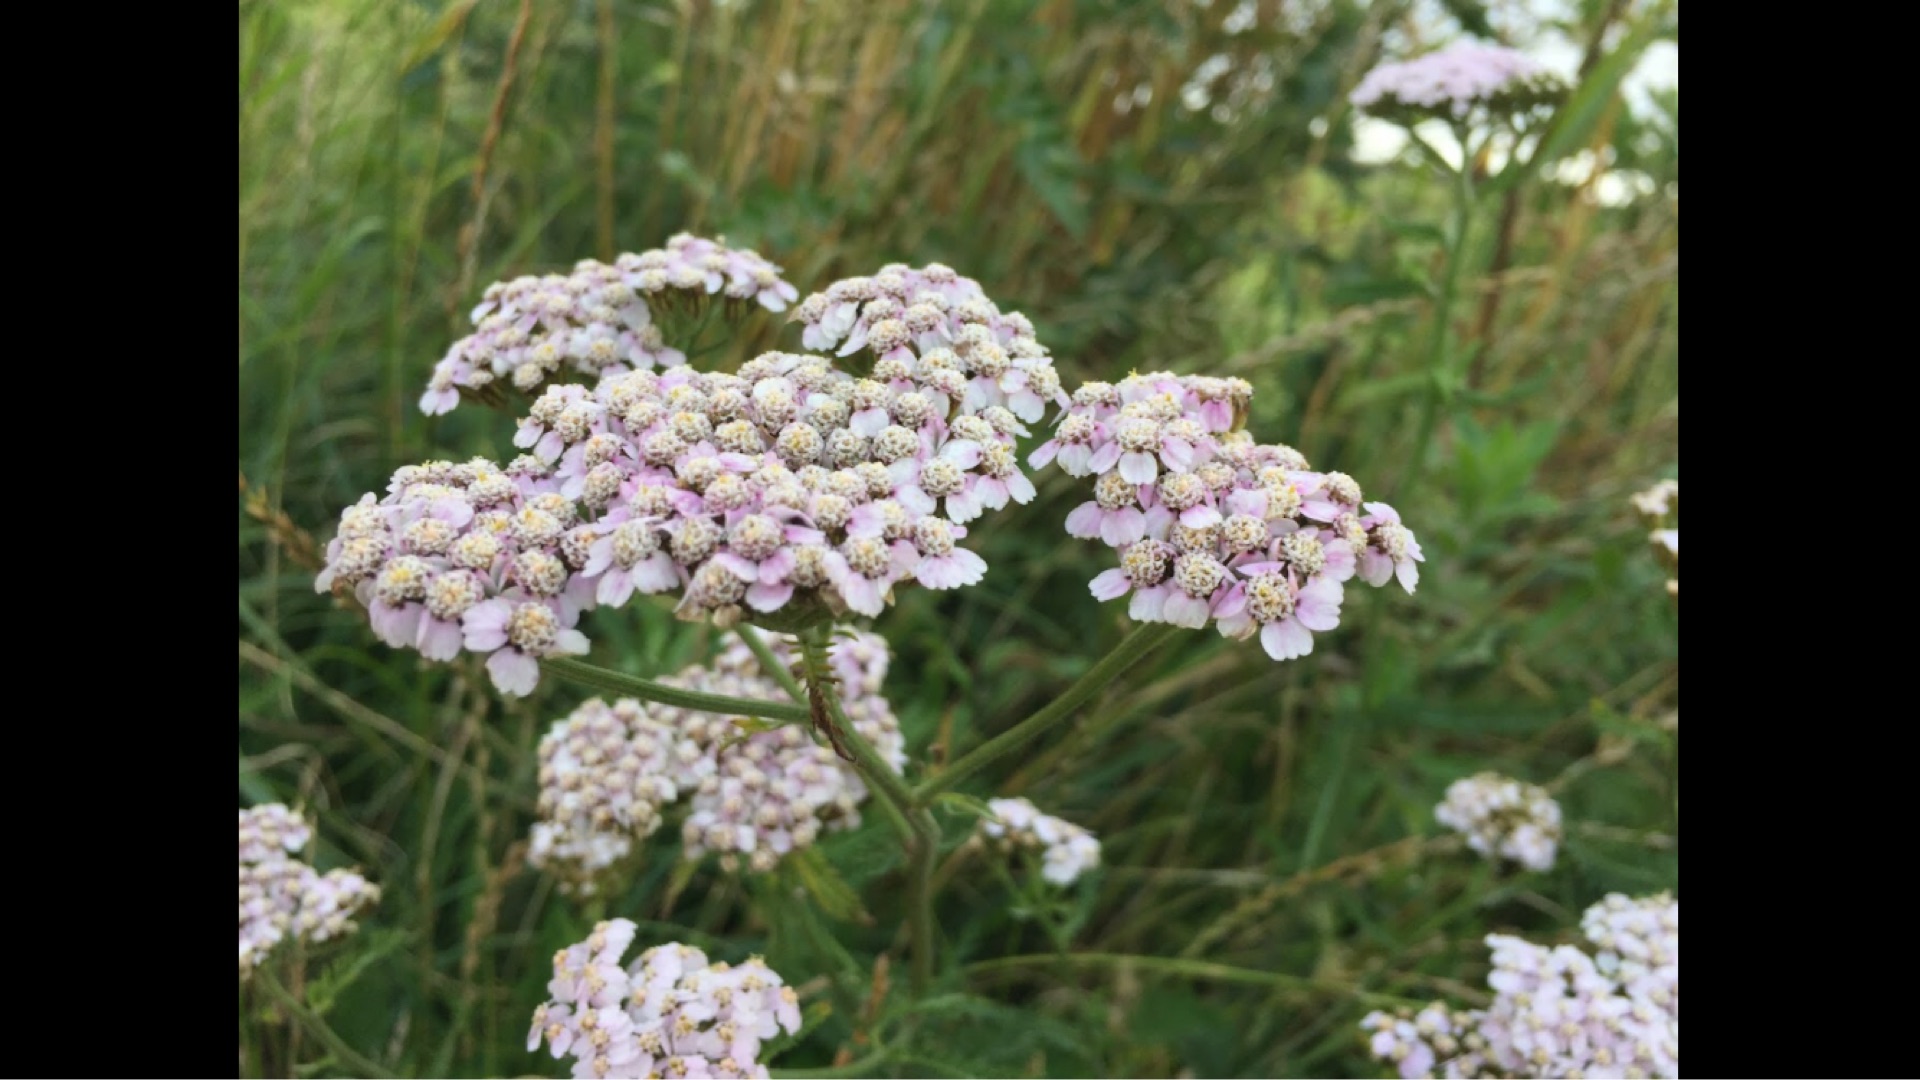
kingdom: Plantae
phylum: Tracheophyta
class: Magnoliopsida
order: Asterales
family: Asteraceae
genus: Achillea
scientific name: Achillea millefolium
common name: Almindelig røllike
